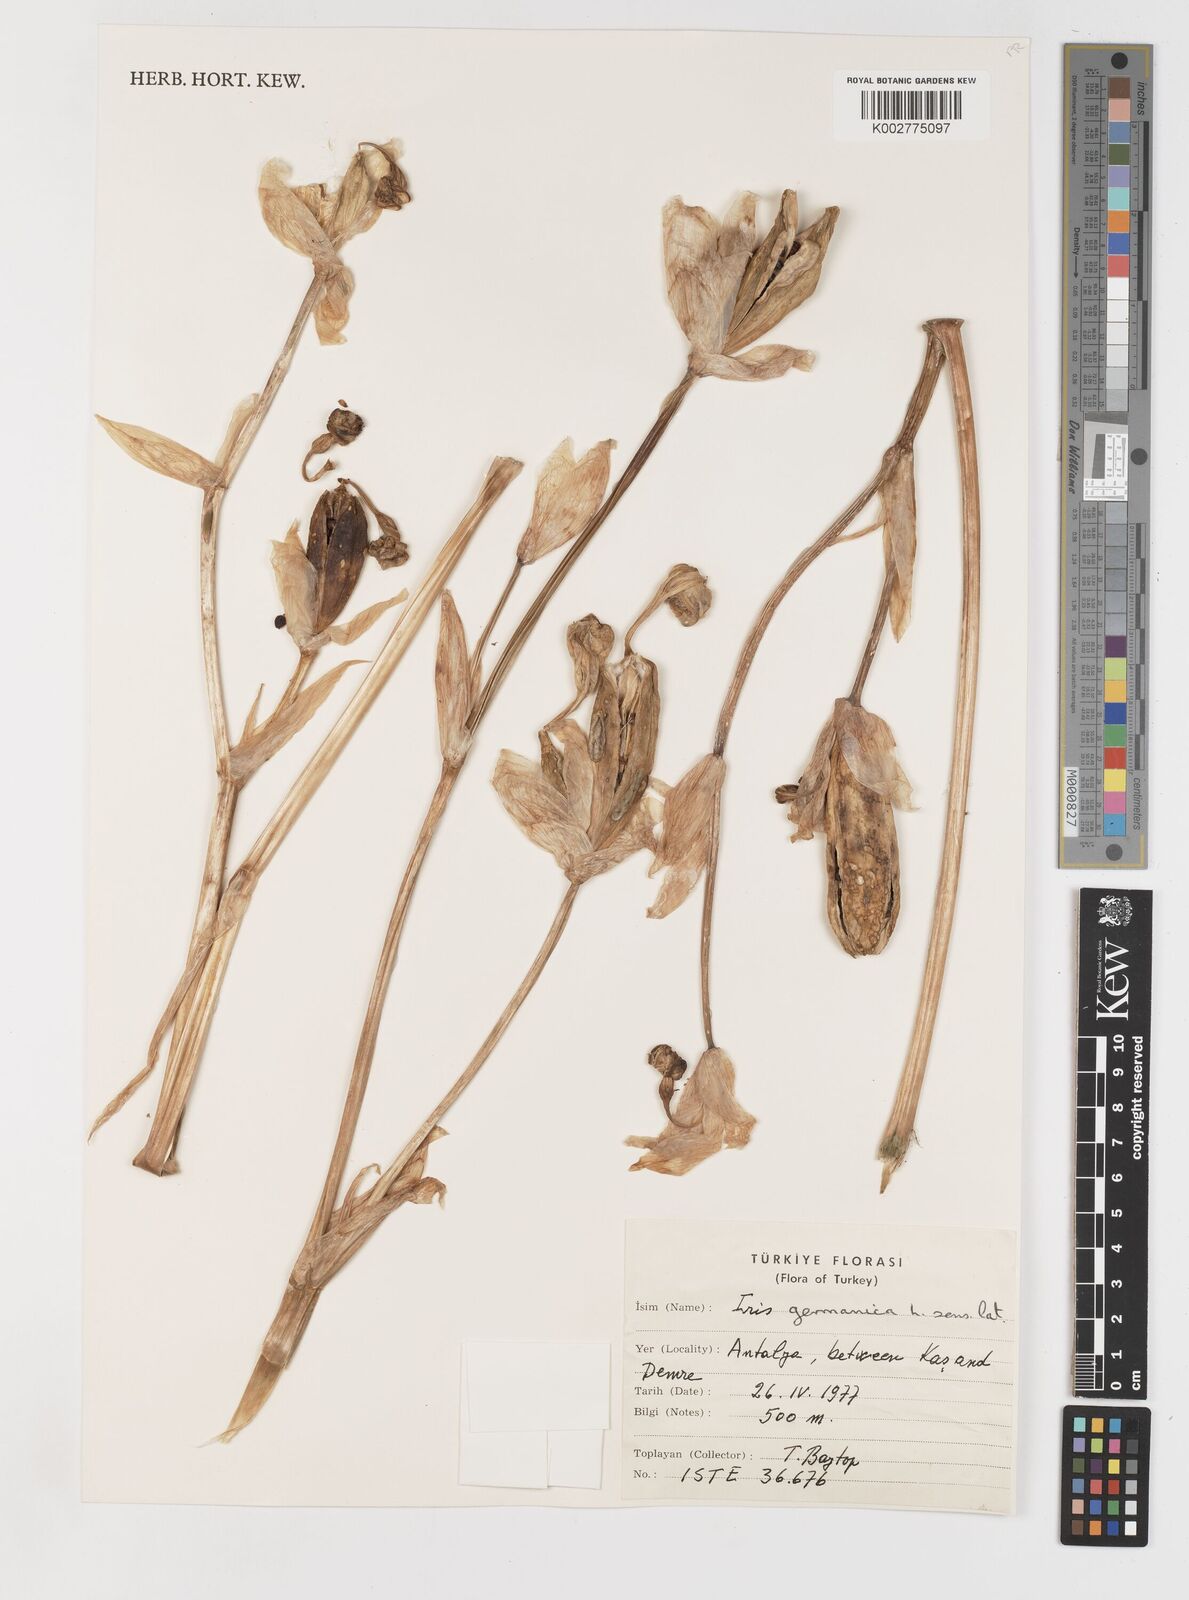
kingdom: Plantae
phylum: Tracheophyta
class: Liliopsida
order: Asparagales
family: Iridaceae
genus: Iris
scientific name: Iris germanica
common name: German iris
